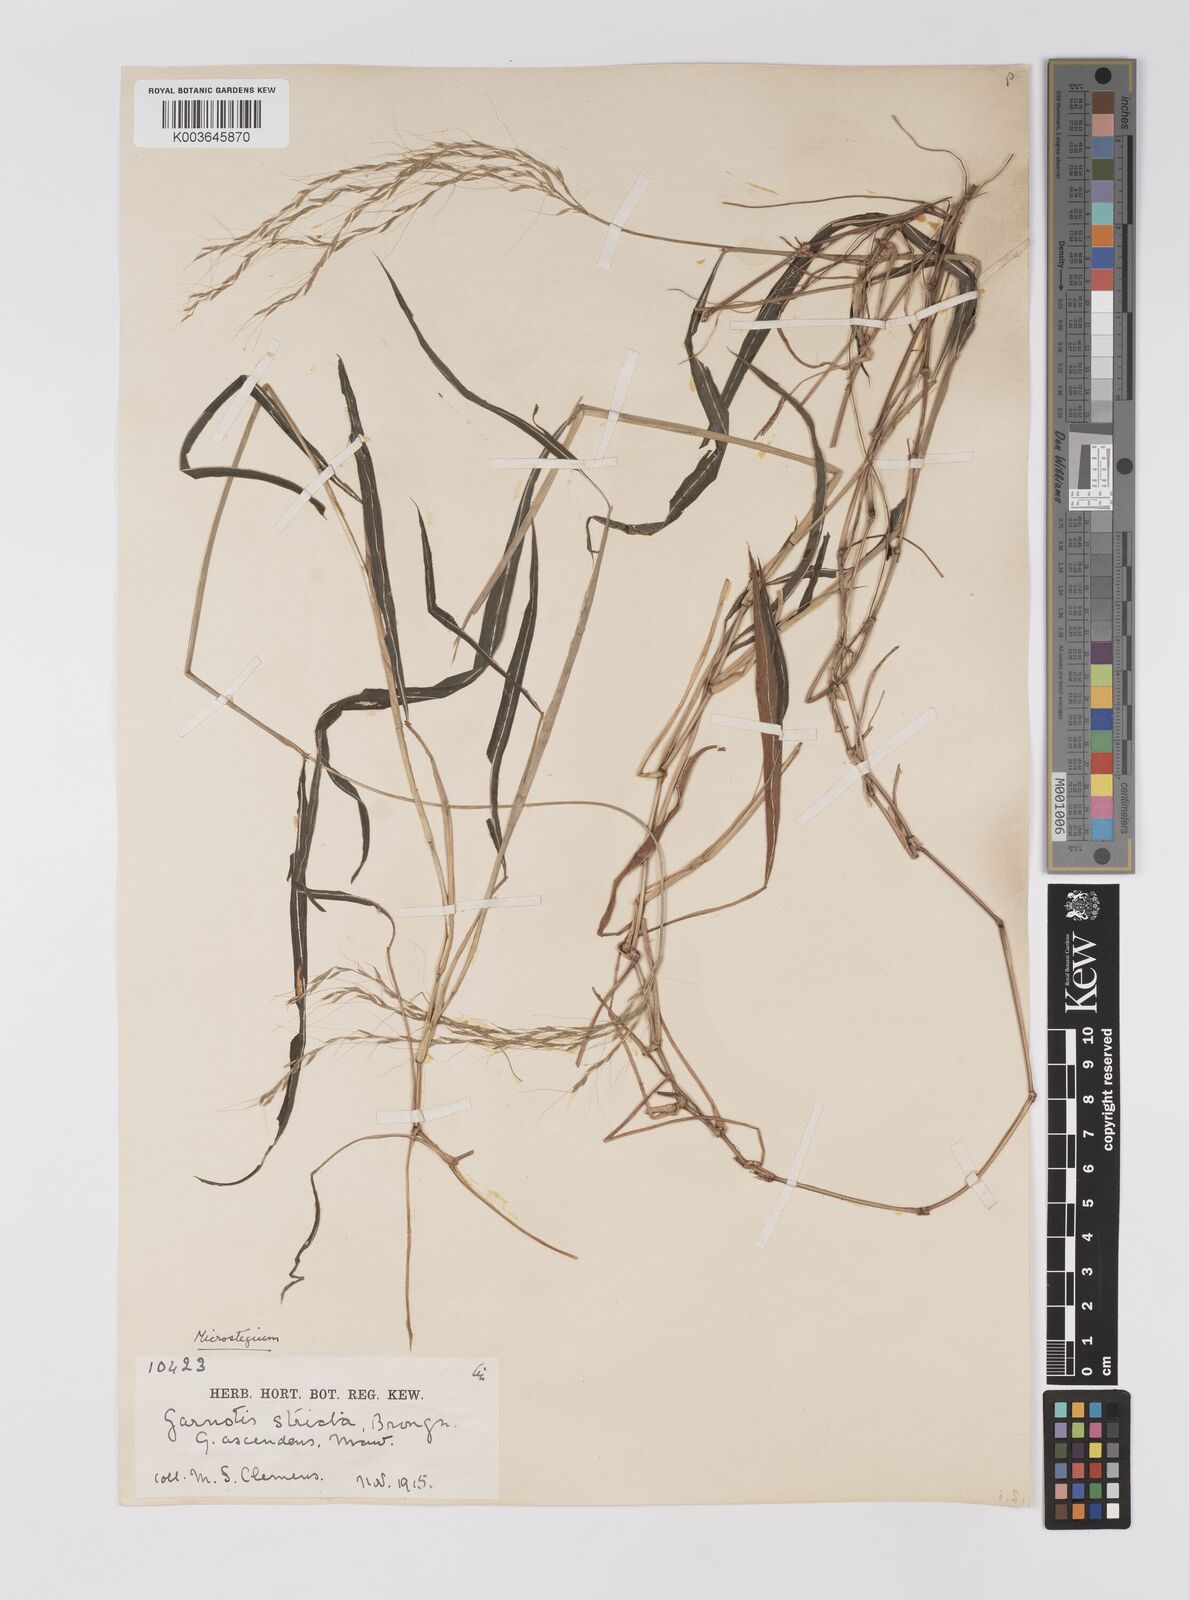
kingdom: Plantae
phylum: Tracheophyta
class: Liliopsida
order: Poales
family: Poaceae
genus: Microstegium
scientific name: Microstegium geniculatum
